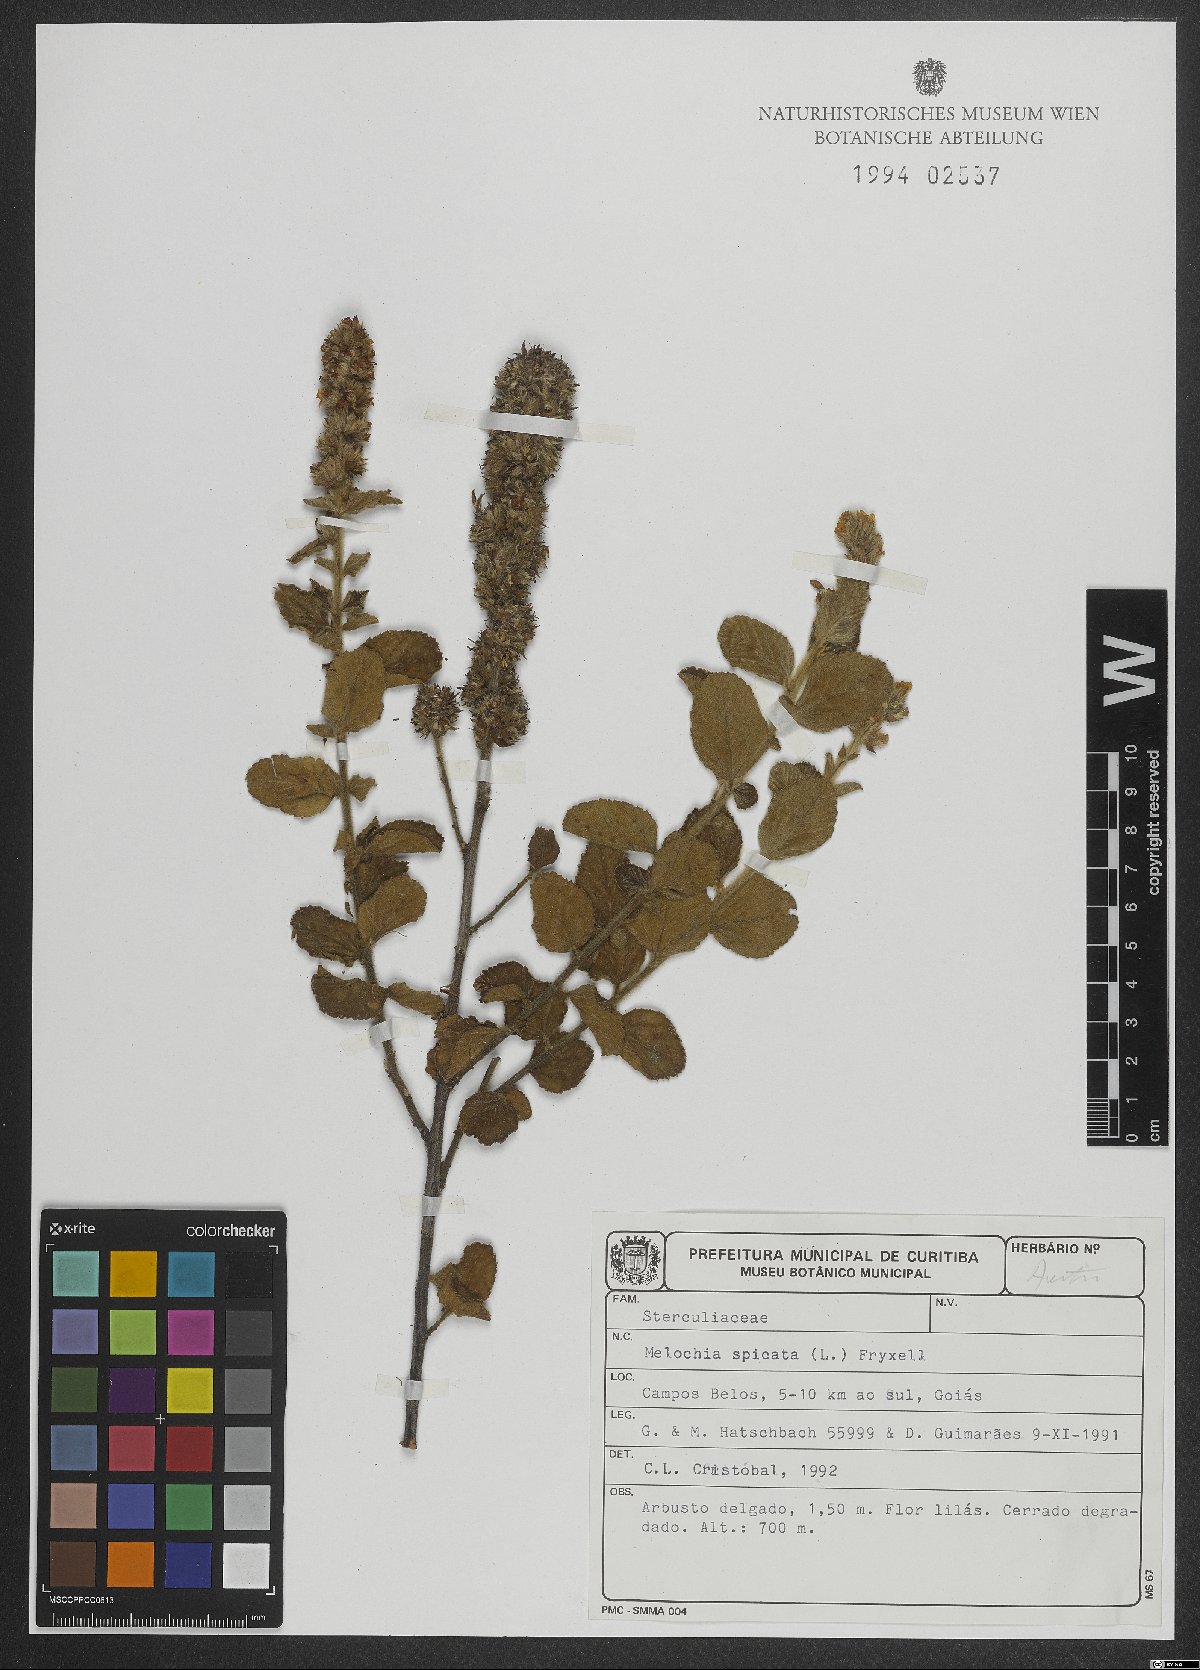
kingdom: Plantae
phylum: Tracheophyta
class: Magnoliopsida
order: Malvales
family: Malvaceae
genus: Melochia
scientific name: Melochia spicata
